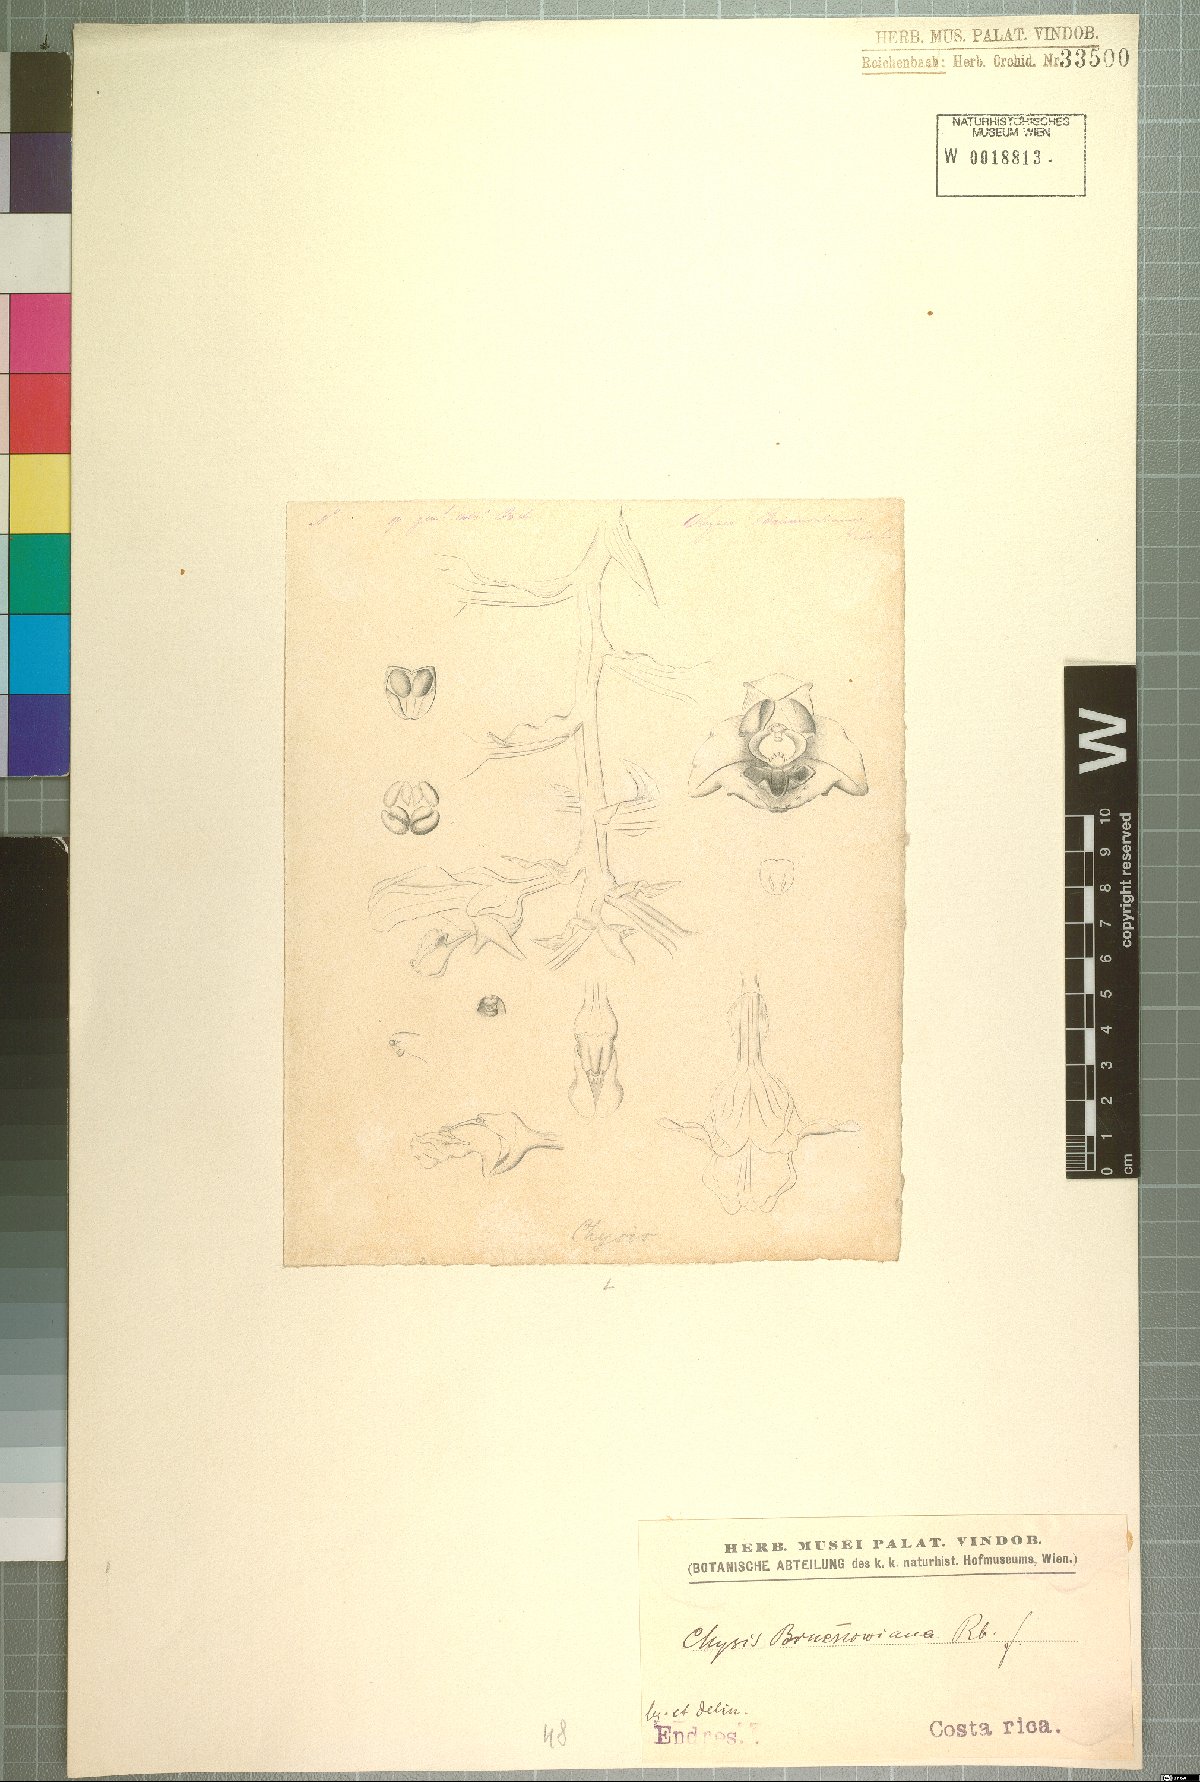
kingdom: Plantae
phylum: Tracheophyta
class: Liliopsida
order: Asparagales
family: Orchidaceae
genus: Chysis
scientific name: Chysis bruennowiana
